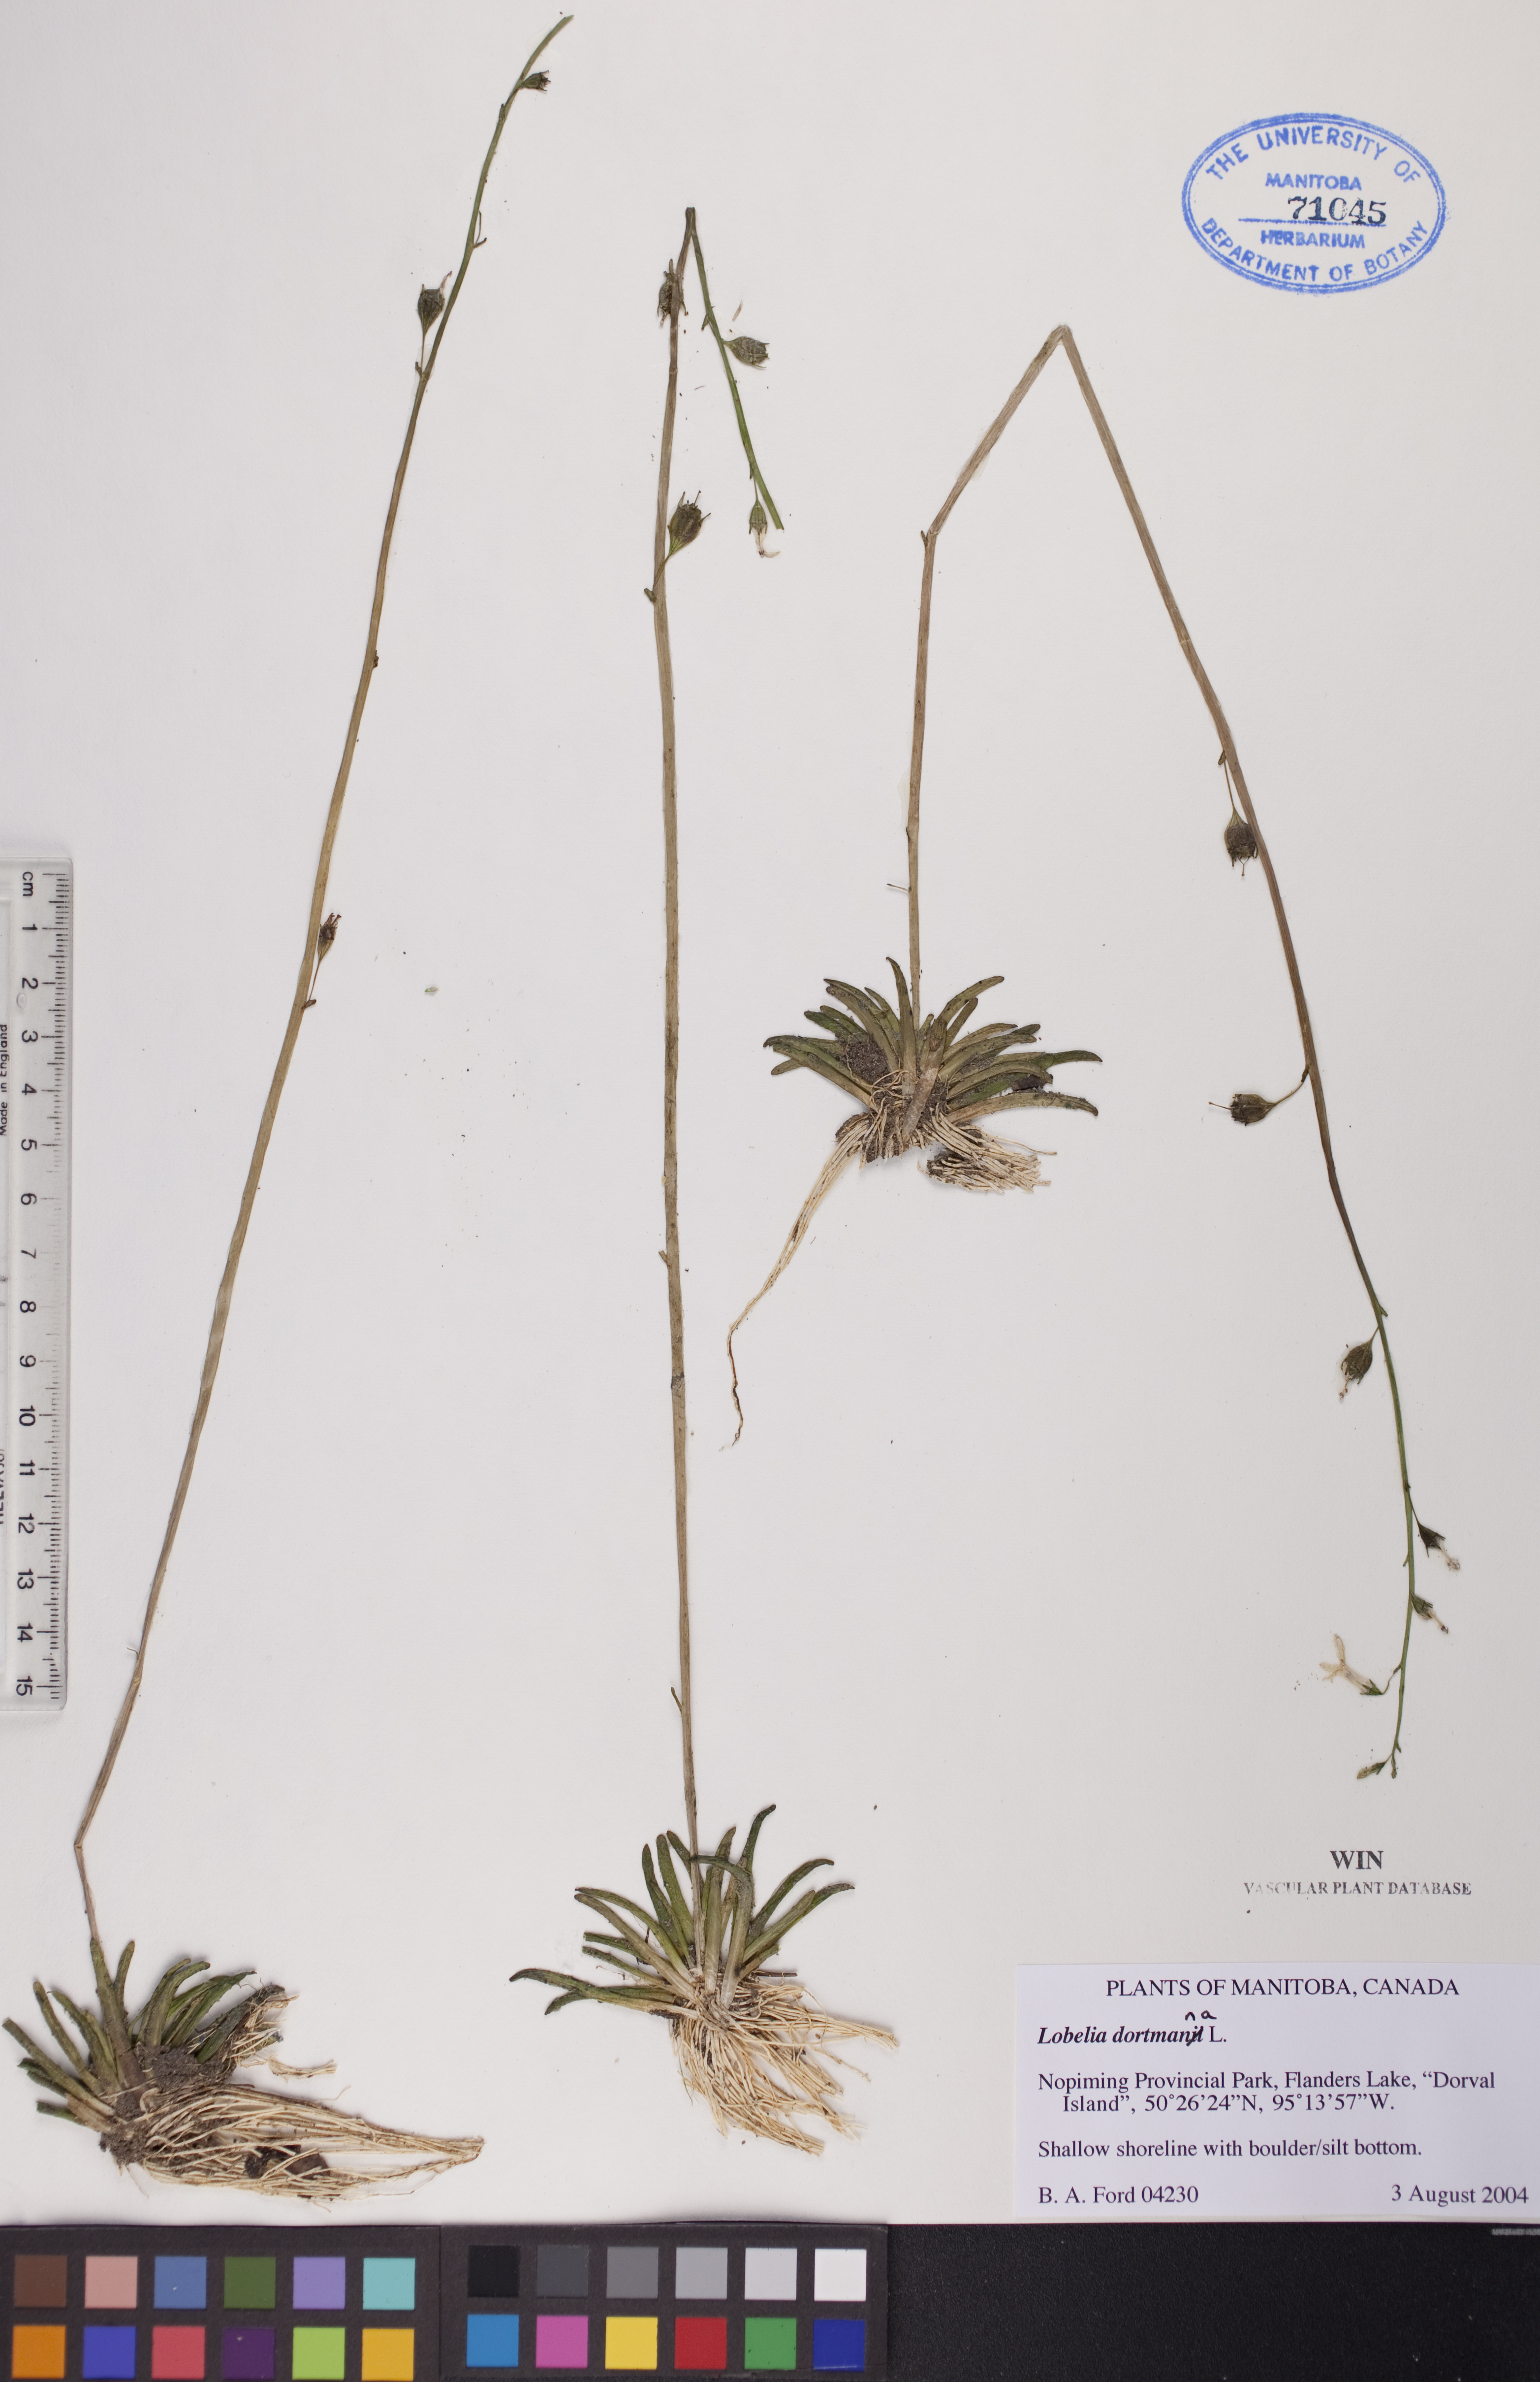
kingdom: Plantae
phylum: Tracheophyta
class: Magnoliopsida
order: Asterales
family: Campanulaceae
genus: Lobelia
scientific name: Lobelia dortmanna
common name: Water lobelia
